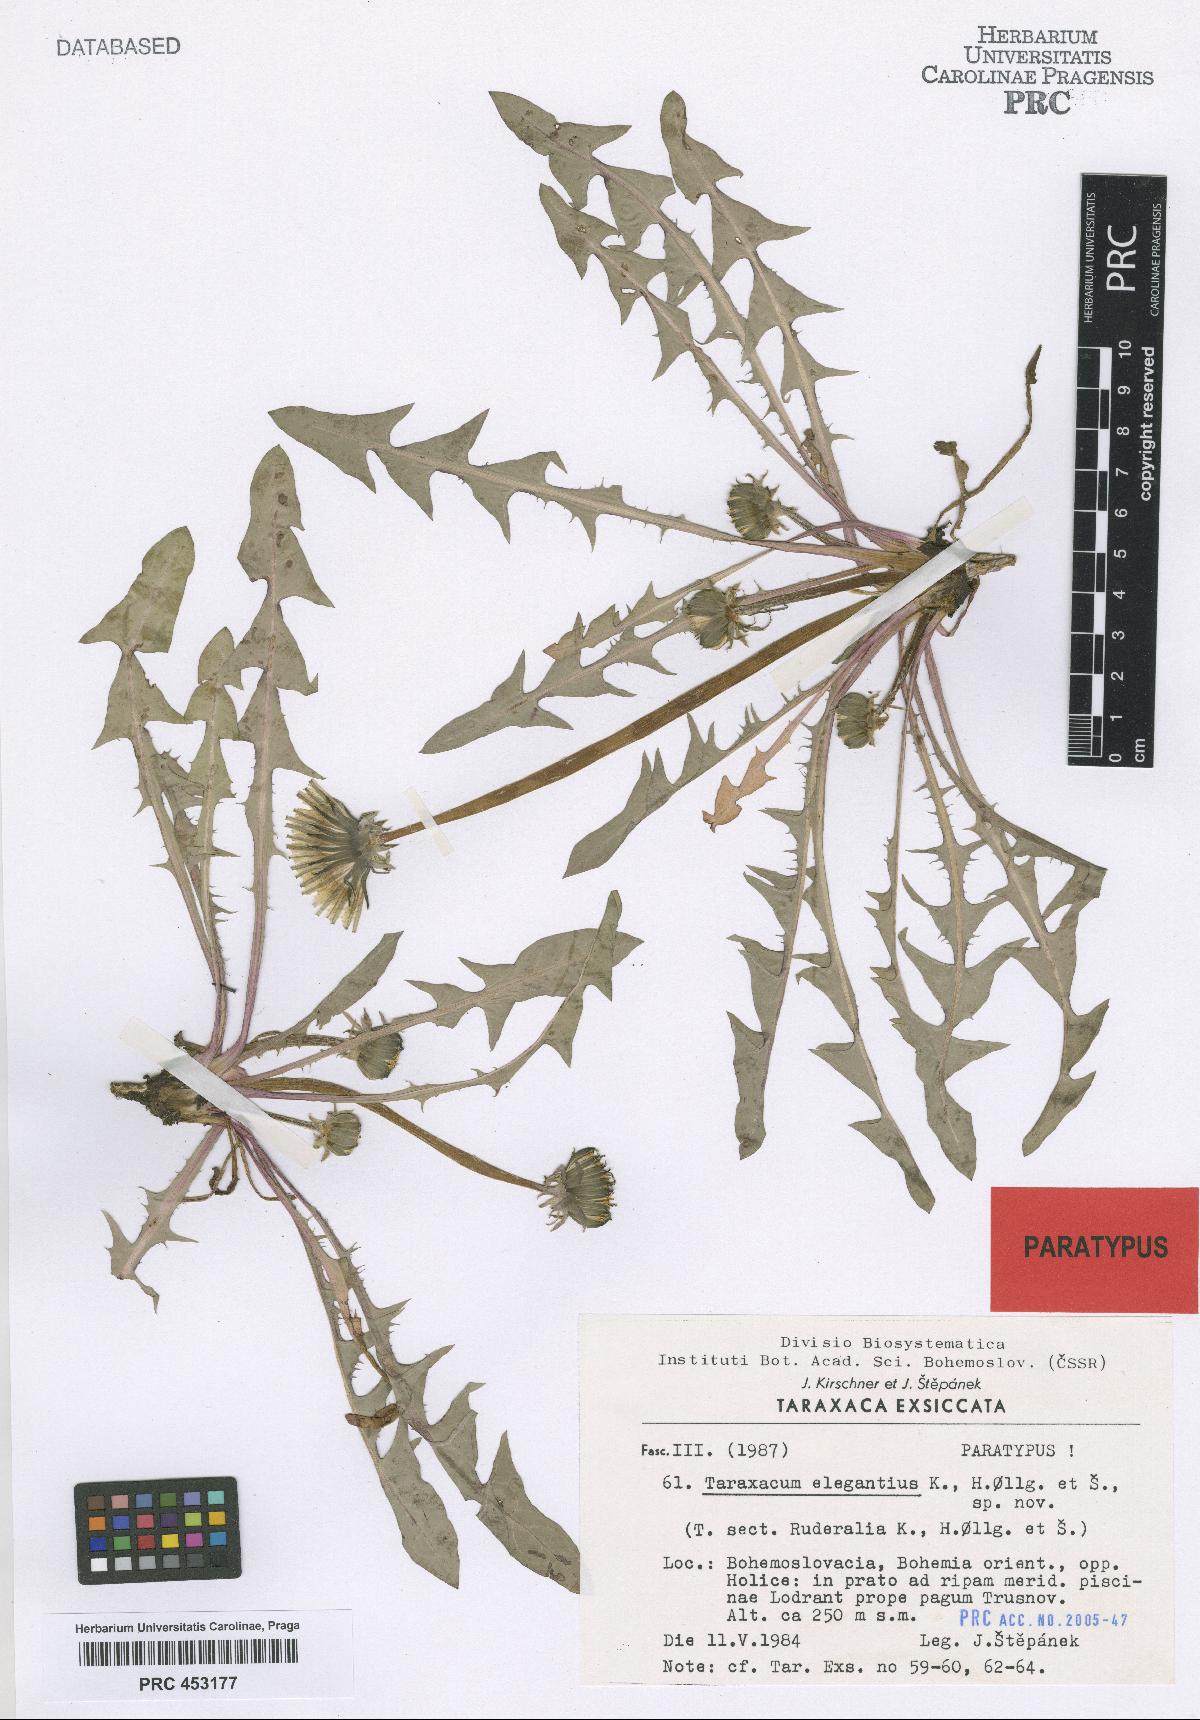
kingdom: Plantae
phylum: Tracheophyta
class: Magnoliopsida
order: Asterales
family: Asteraceae
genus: Taraxacum
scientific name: Taraxacum elegantius
